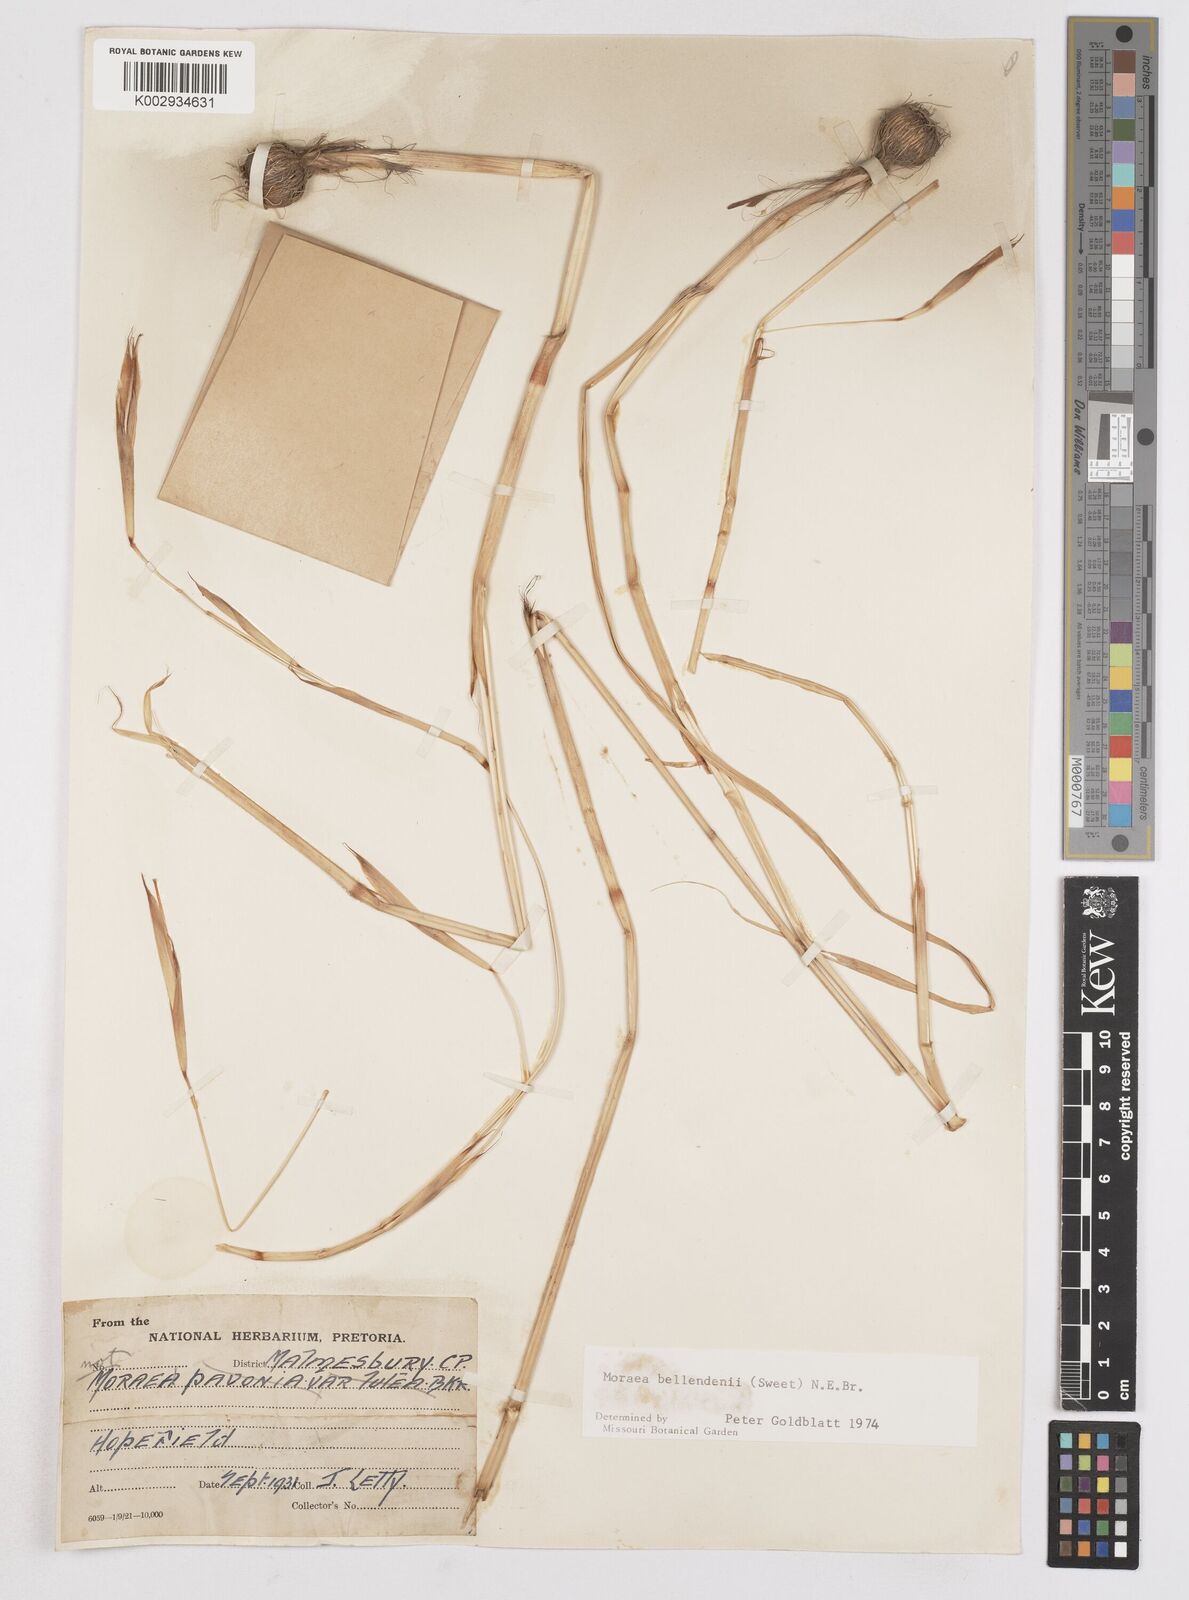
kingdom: Plantae
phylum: Tracheophyta
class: Liliopsida
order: Asparagales
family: Iridaceae
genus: Moraea
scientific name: Moraea bellendenii
